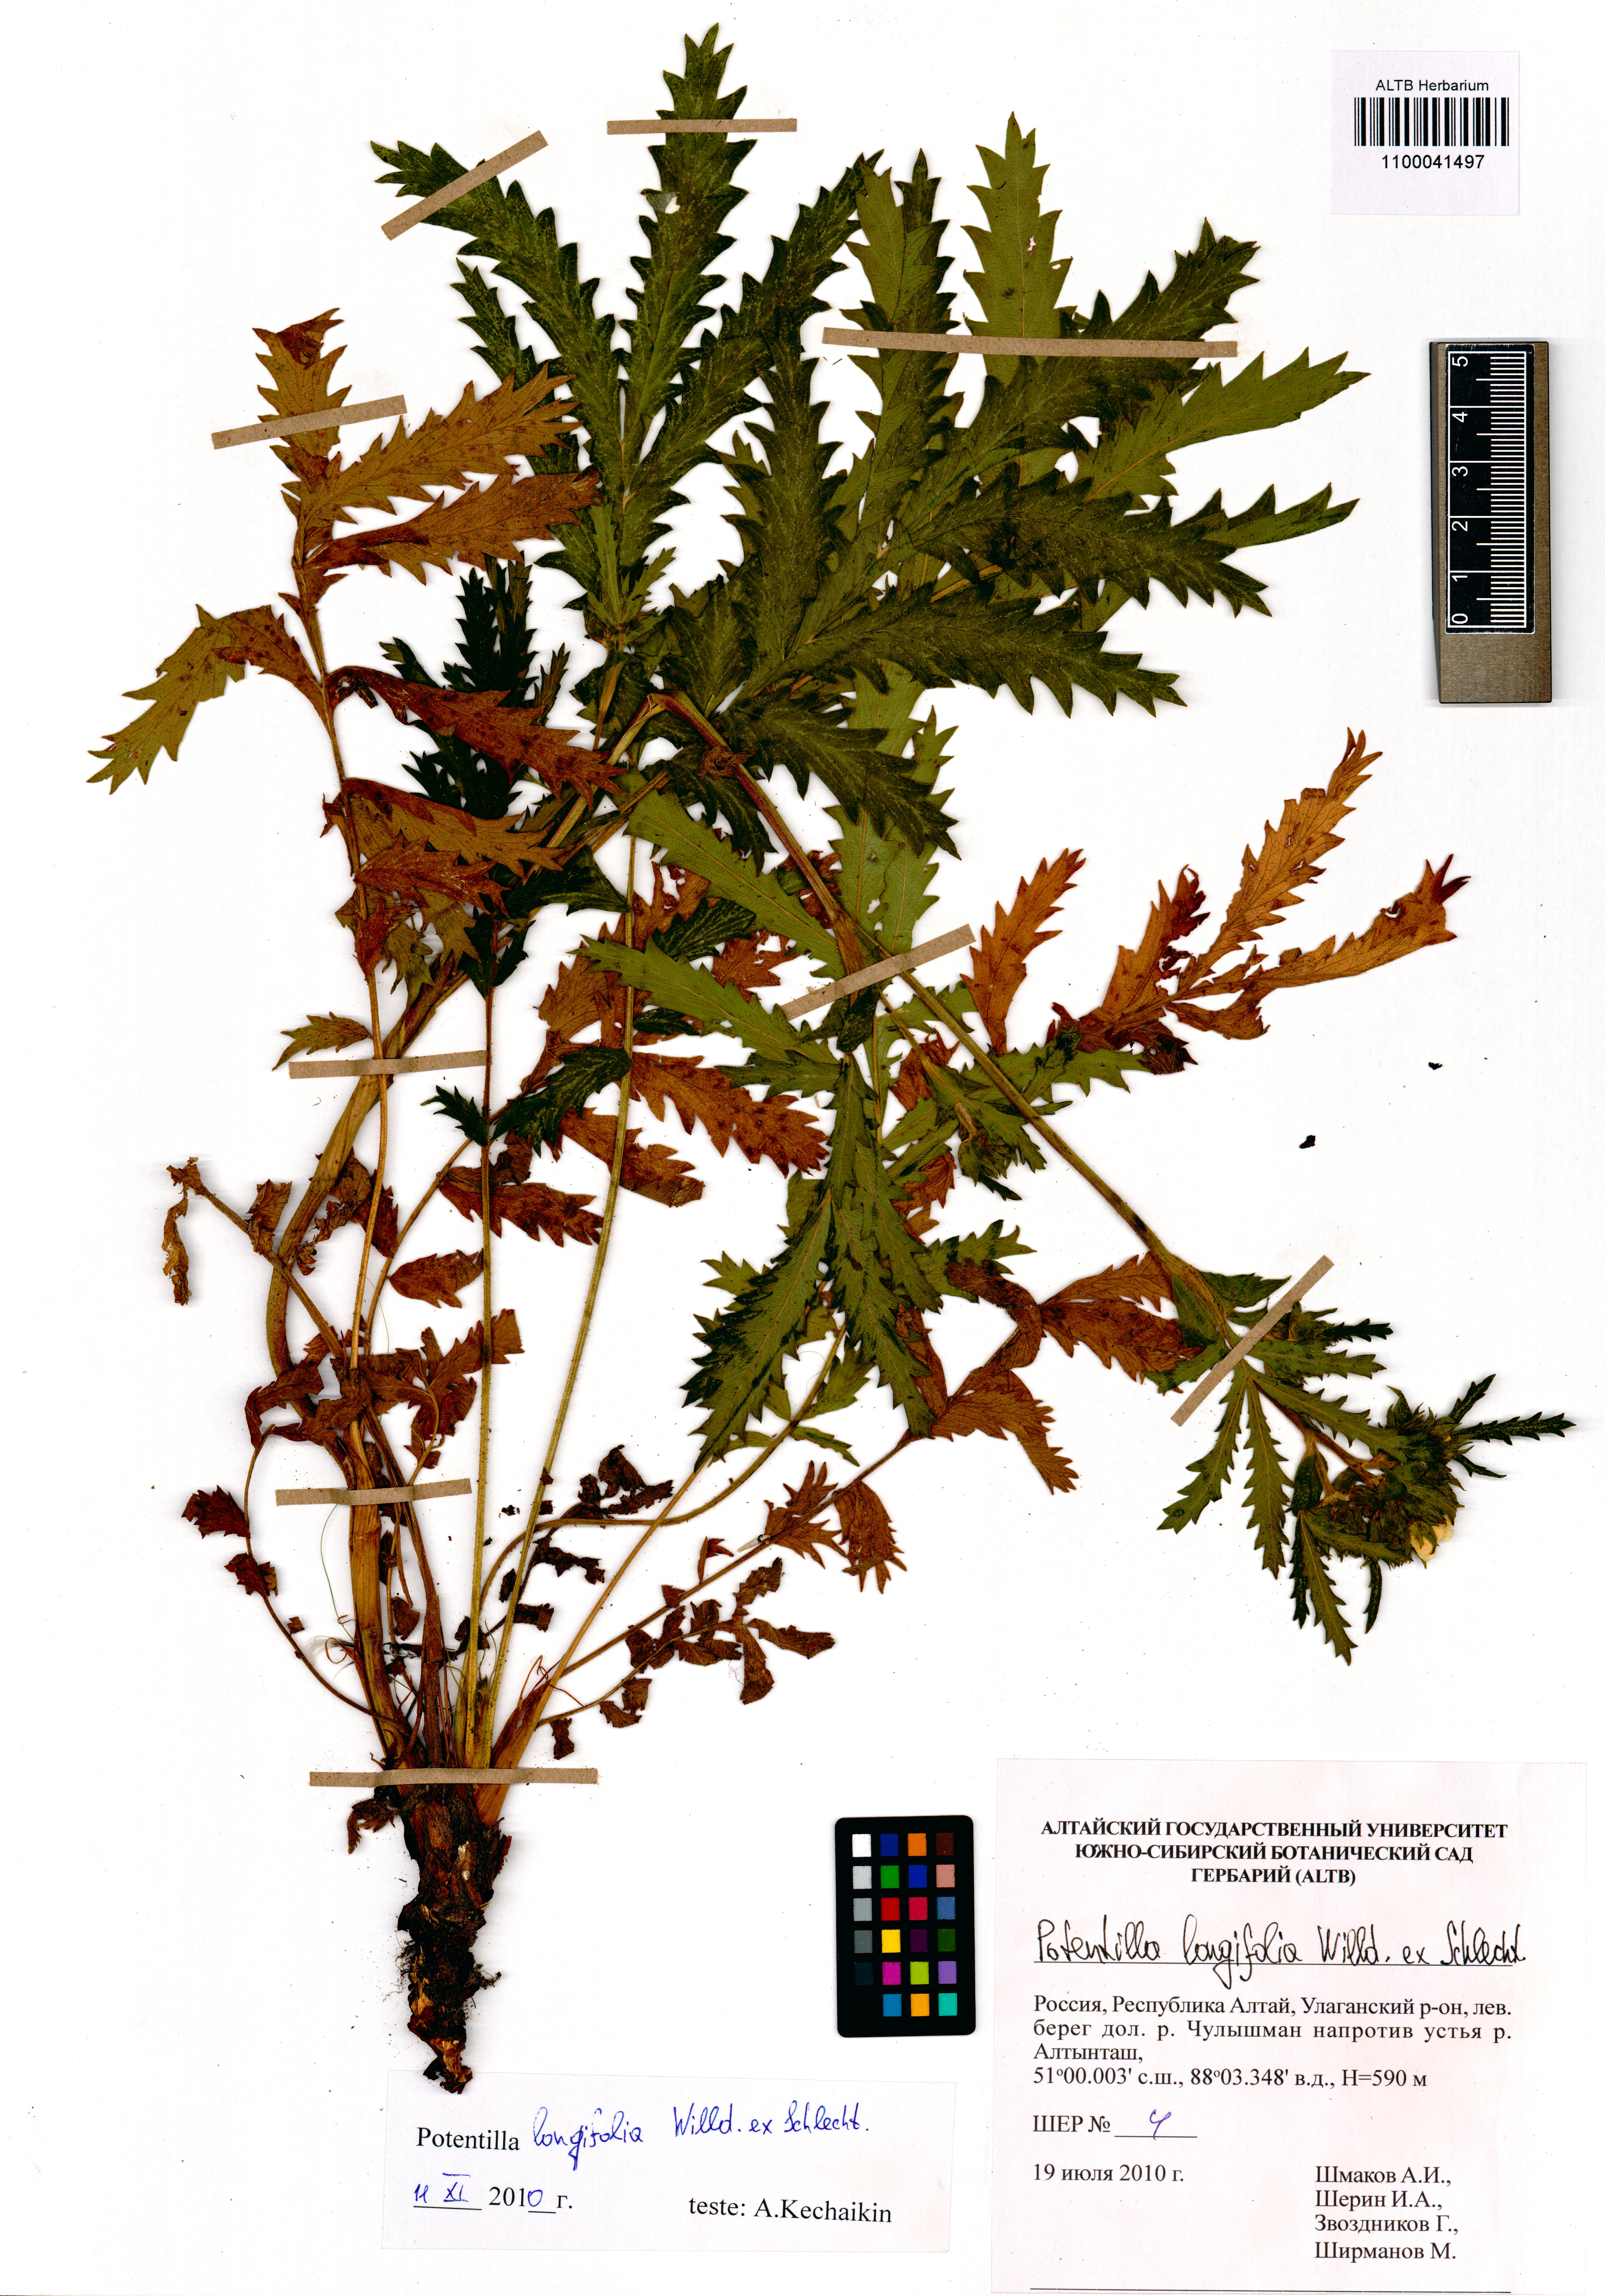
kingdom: Plantae
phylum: Tracheophyta
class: Magnoliopsida
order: Rosales
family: Rosaceae
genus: Potentilla
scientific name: Potentilla longifolia
